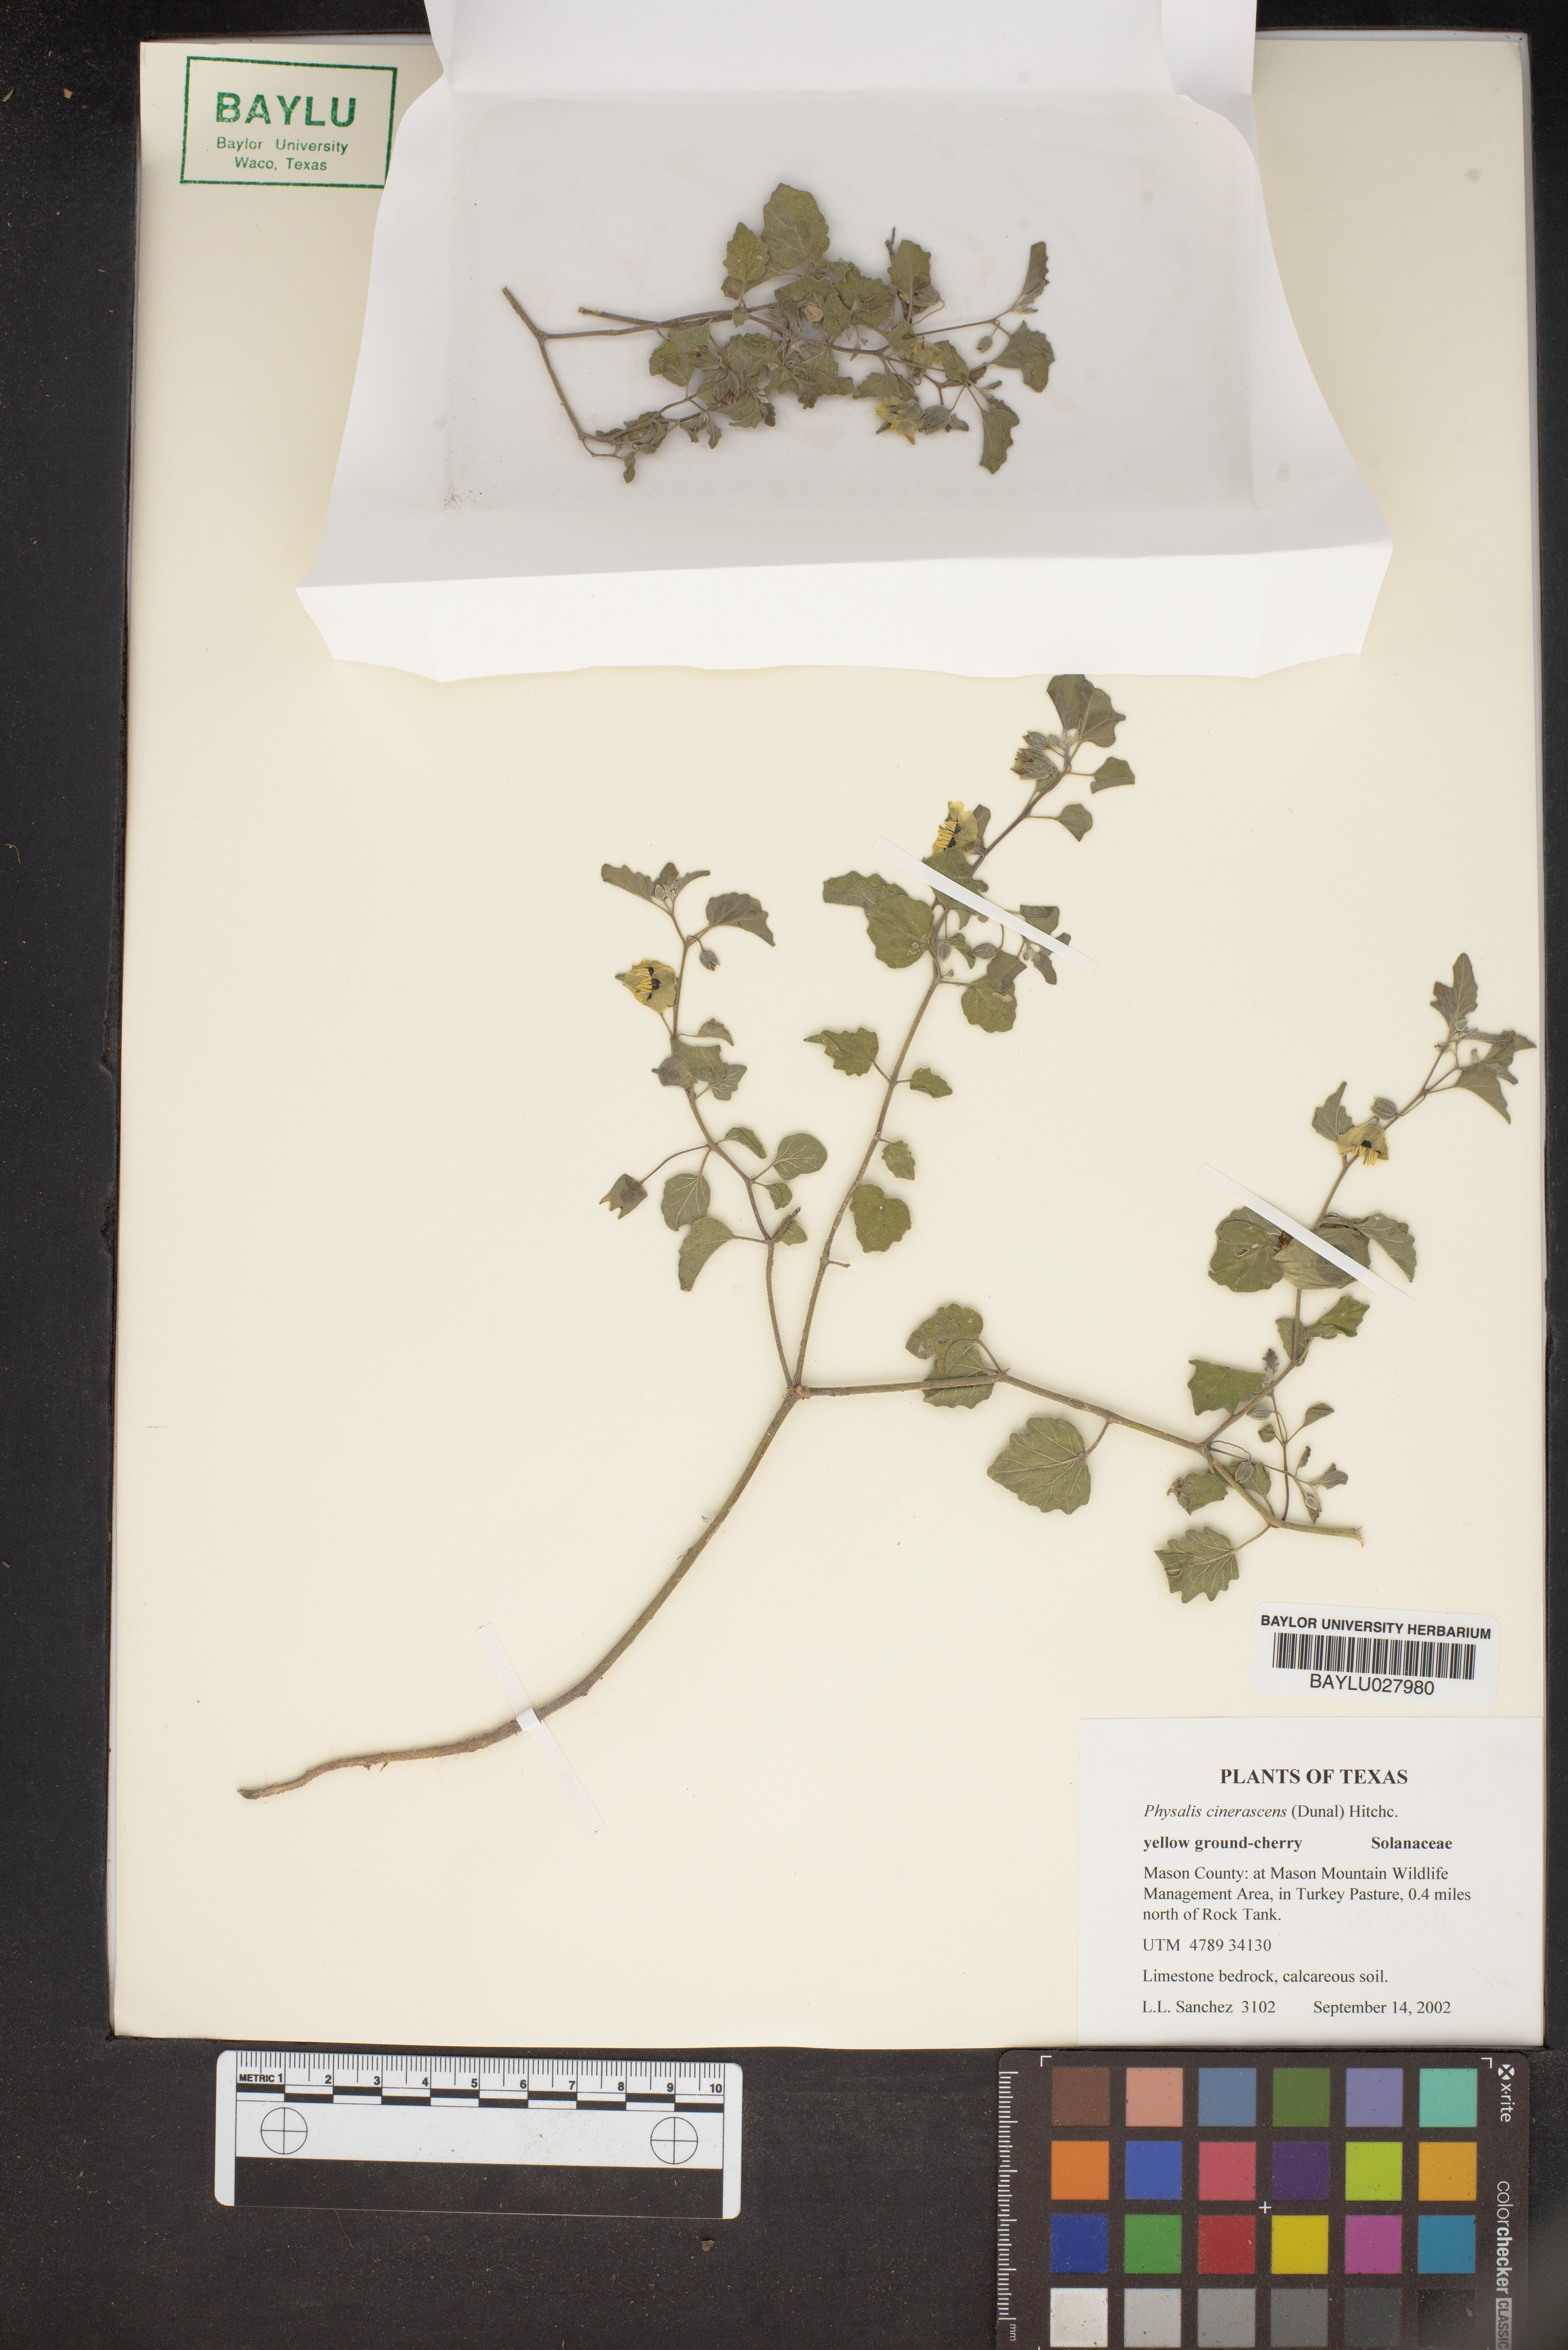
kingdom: Plantae
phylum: Tracheophyta
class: Magnoliopsida
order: Solanales
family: Solanaceae
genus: Physalis
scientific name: Physalis cinerascens
